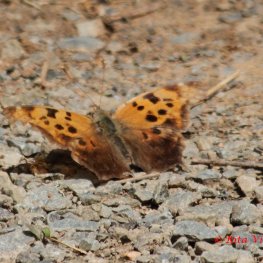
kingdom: Animalia
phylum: Arthropoda
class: Insecta
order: Lepidoptera
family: Nymphalidae
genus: Polygonia
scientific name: Polygonia interrogationis
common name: Question Mark
